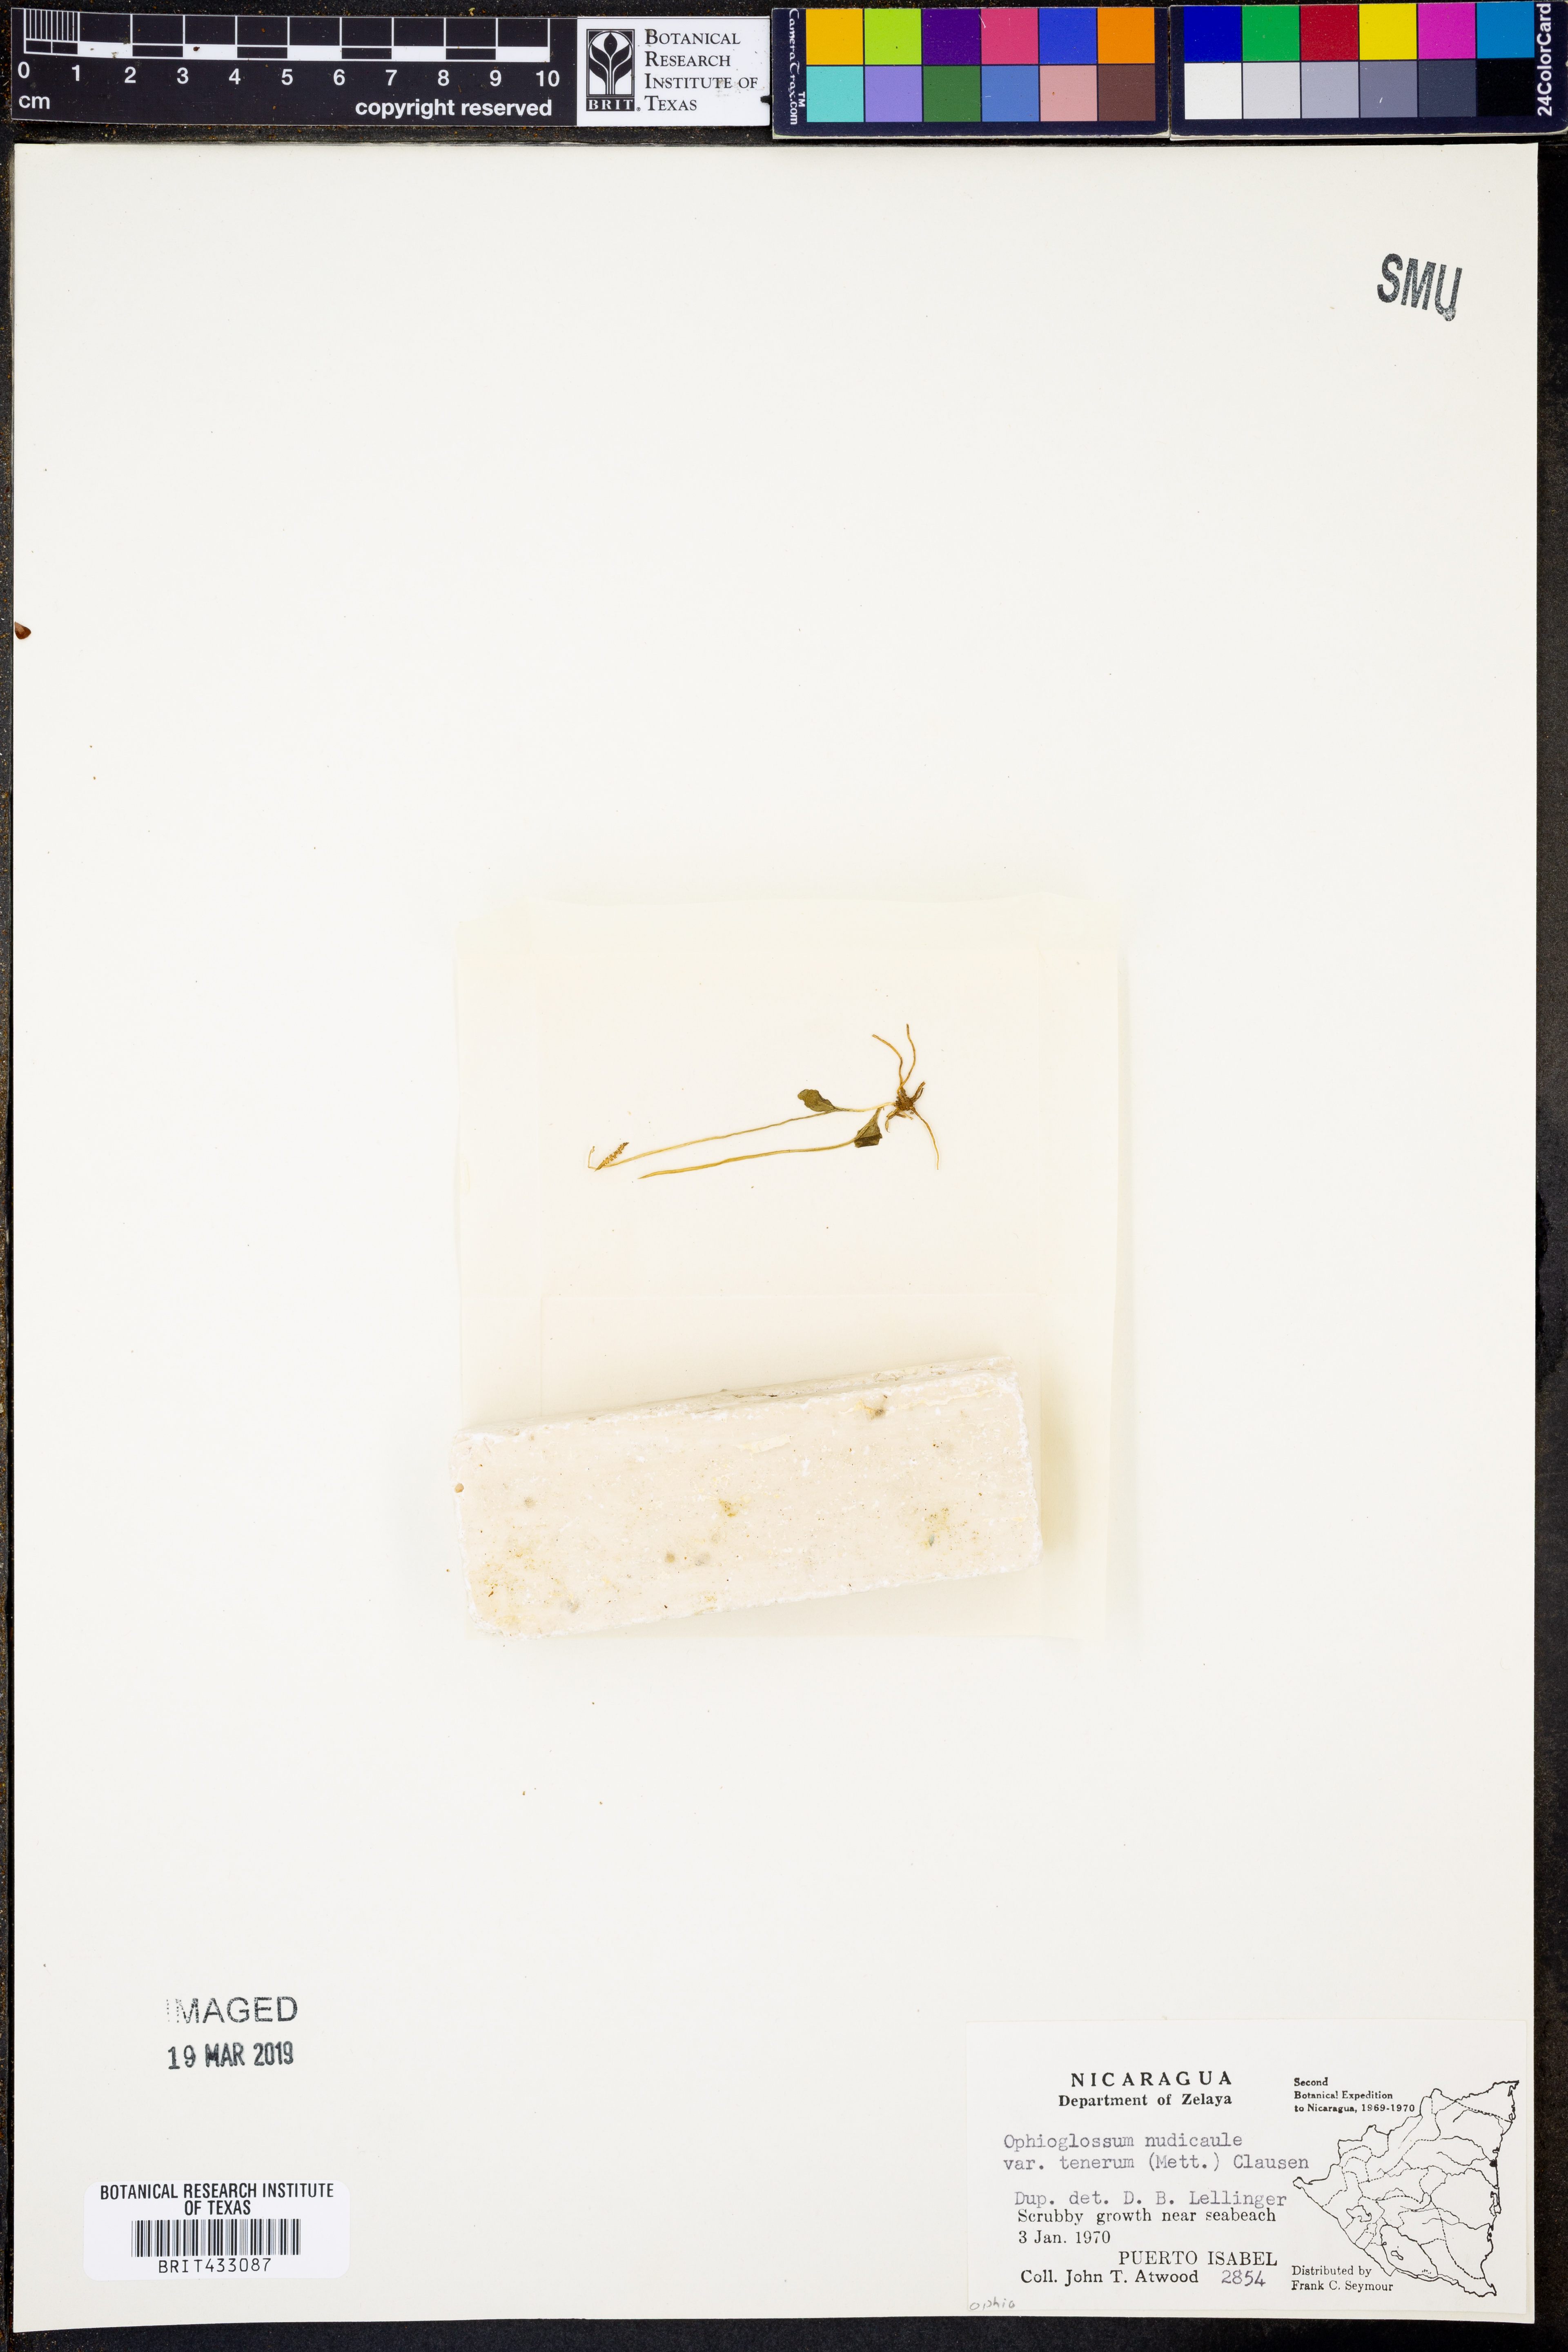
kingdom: Plantae
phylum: Tracheophyta
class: Polypodiopsida
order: Ophioglossales
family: Ophioglossaceae
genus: Ophioglossum
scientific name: Ophioglossum nudicaule
